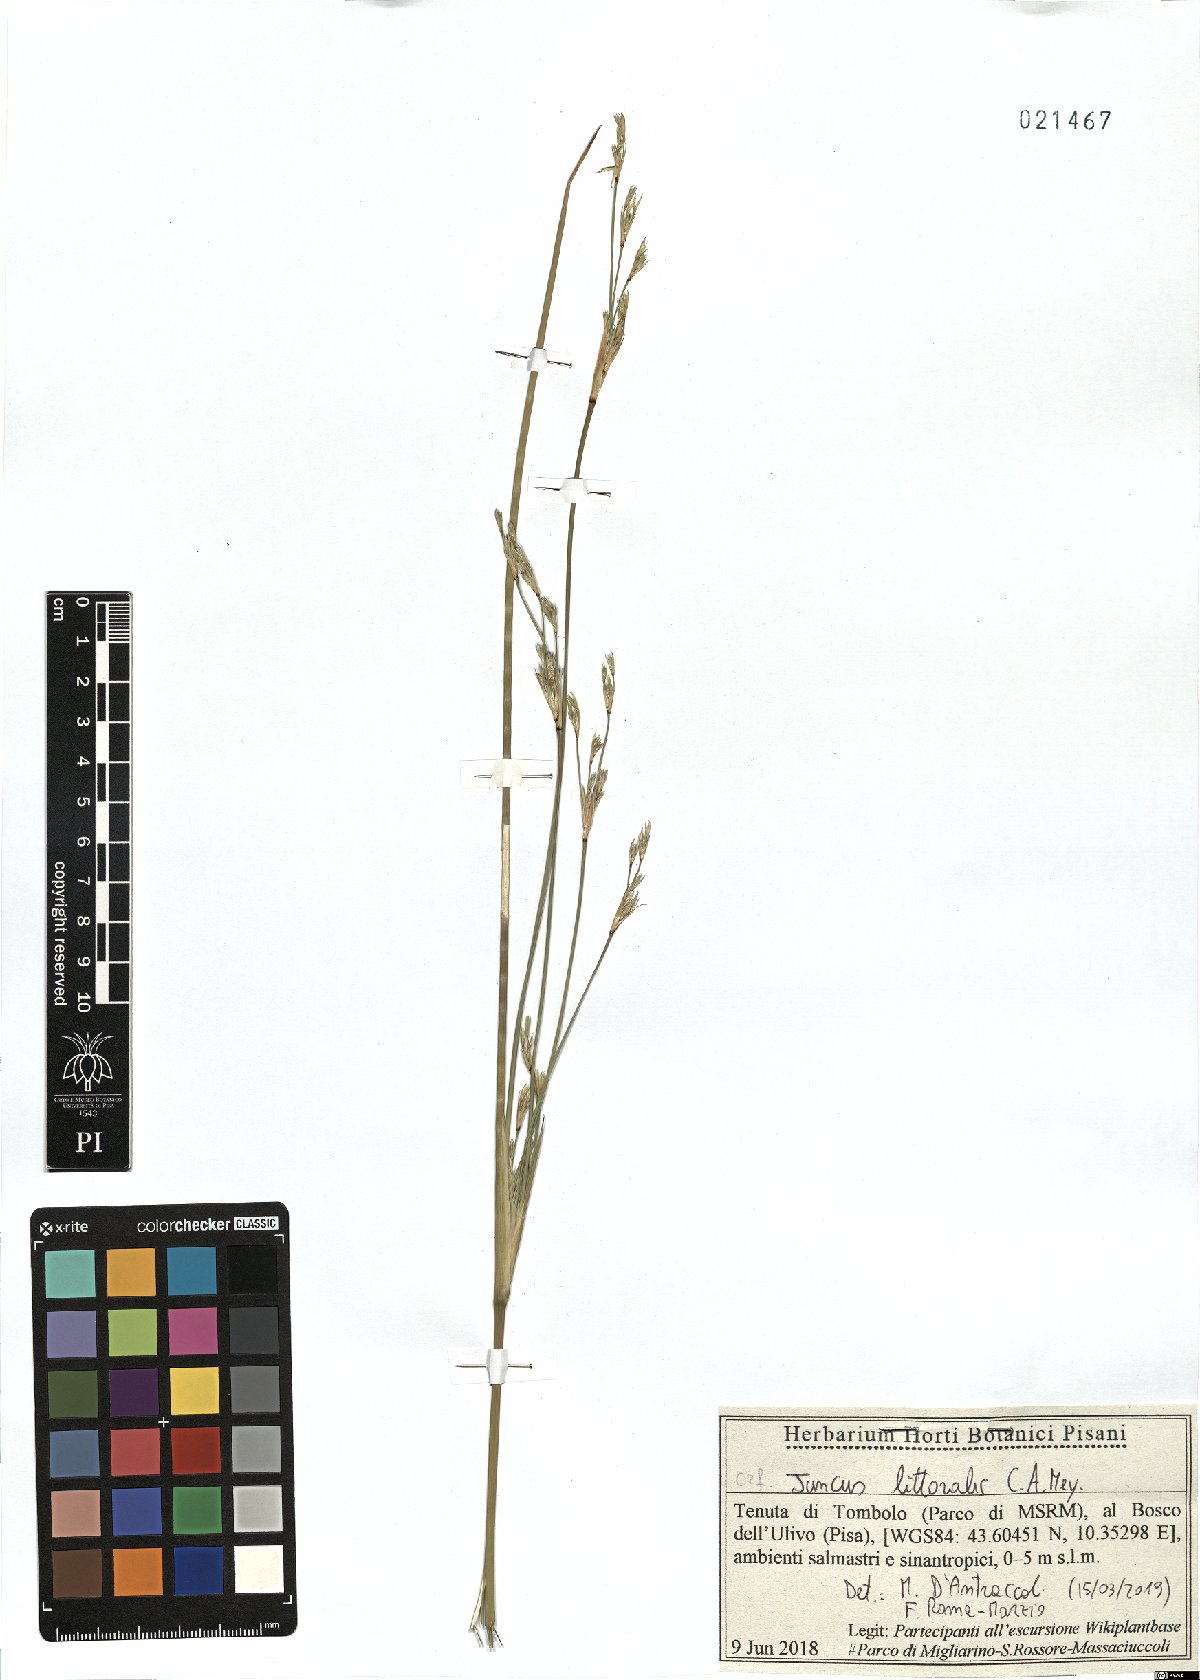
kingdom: Plantae
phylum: Tracheophyta
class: Liliopsida
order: Poales
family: Juncaceae
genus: Juncus
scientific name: Juncus littoralis
